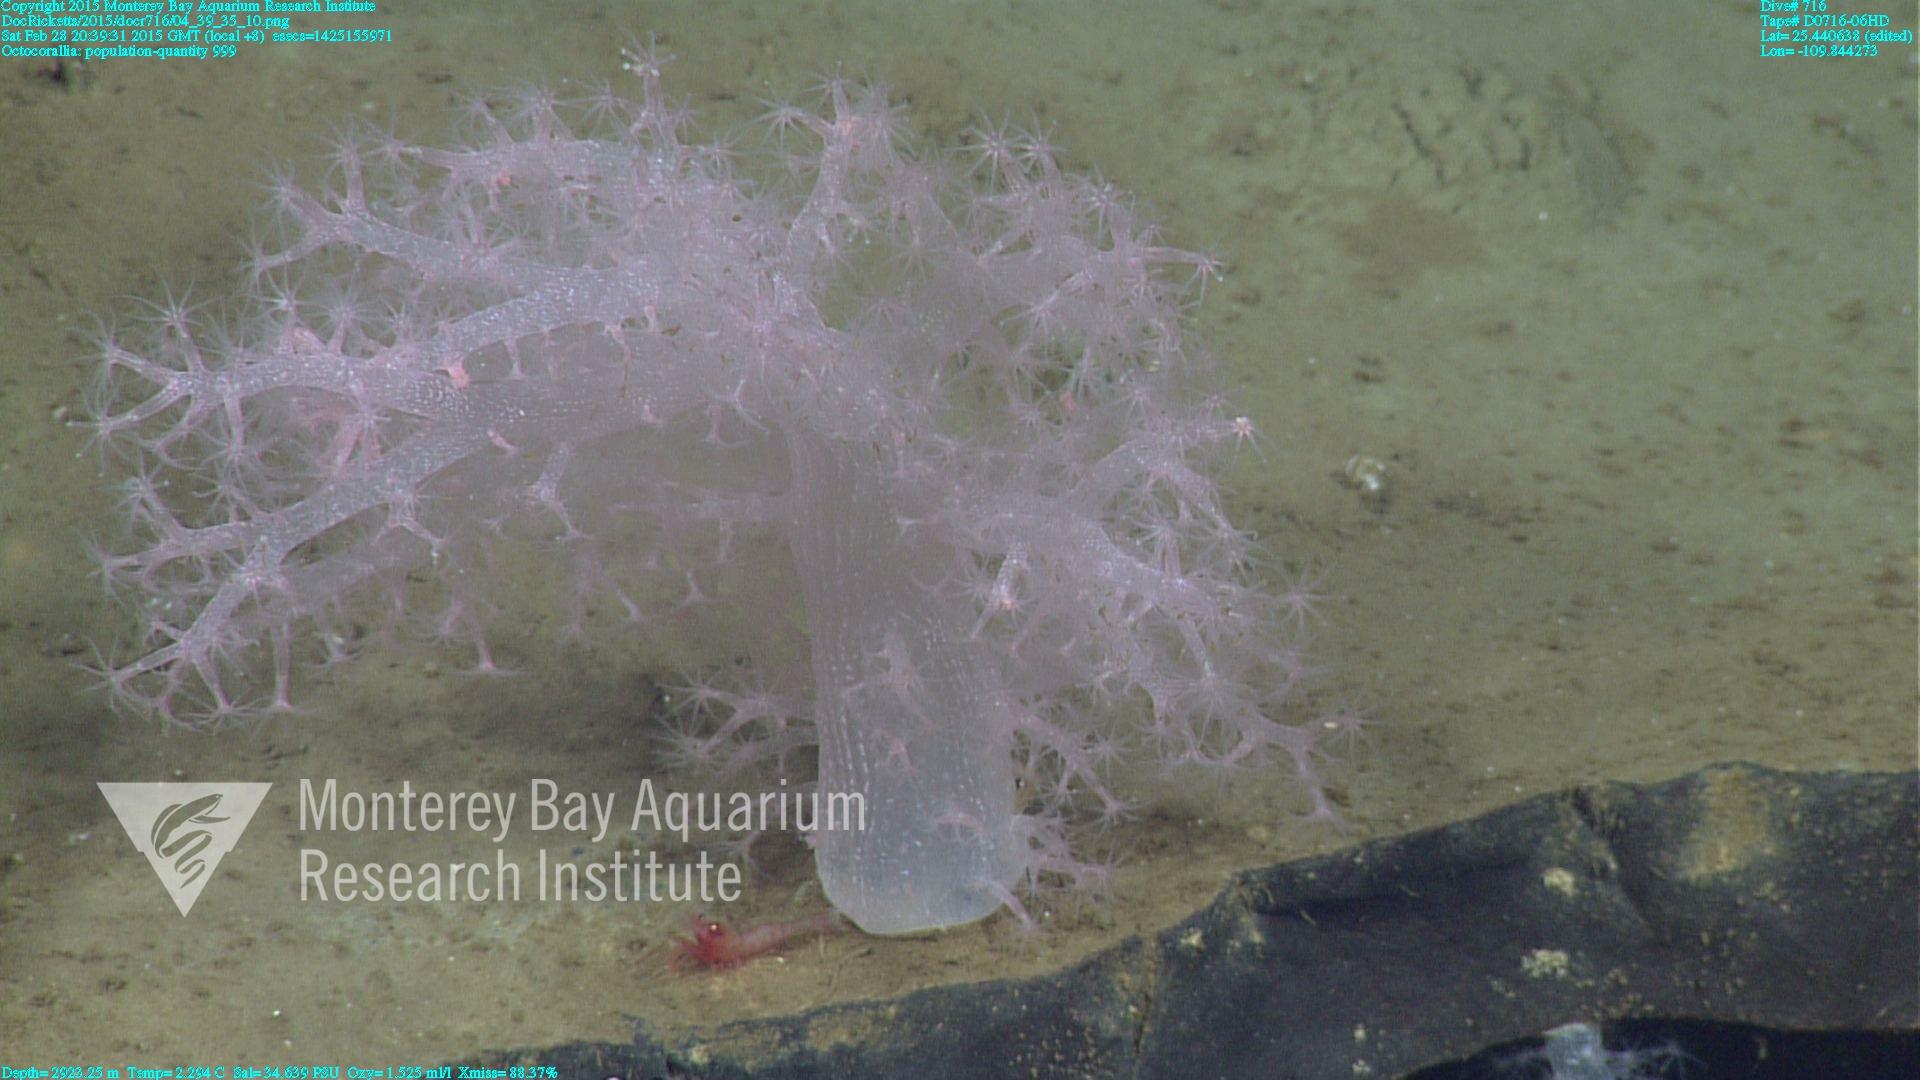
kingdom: Animalia
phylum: Cnidaria
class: Anthozoa
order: Malacalcyonacea
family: Alcyoniidae
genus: Gersemia
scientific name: Gersemia juliepackardae
